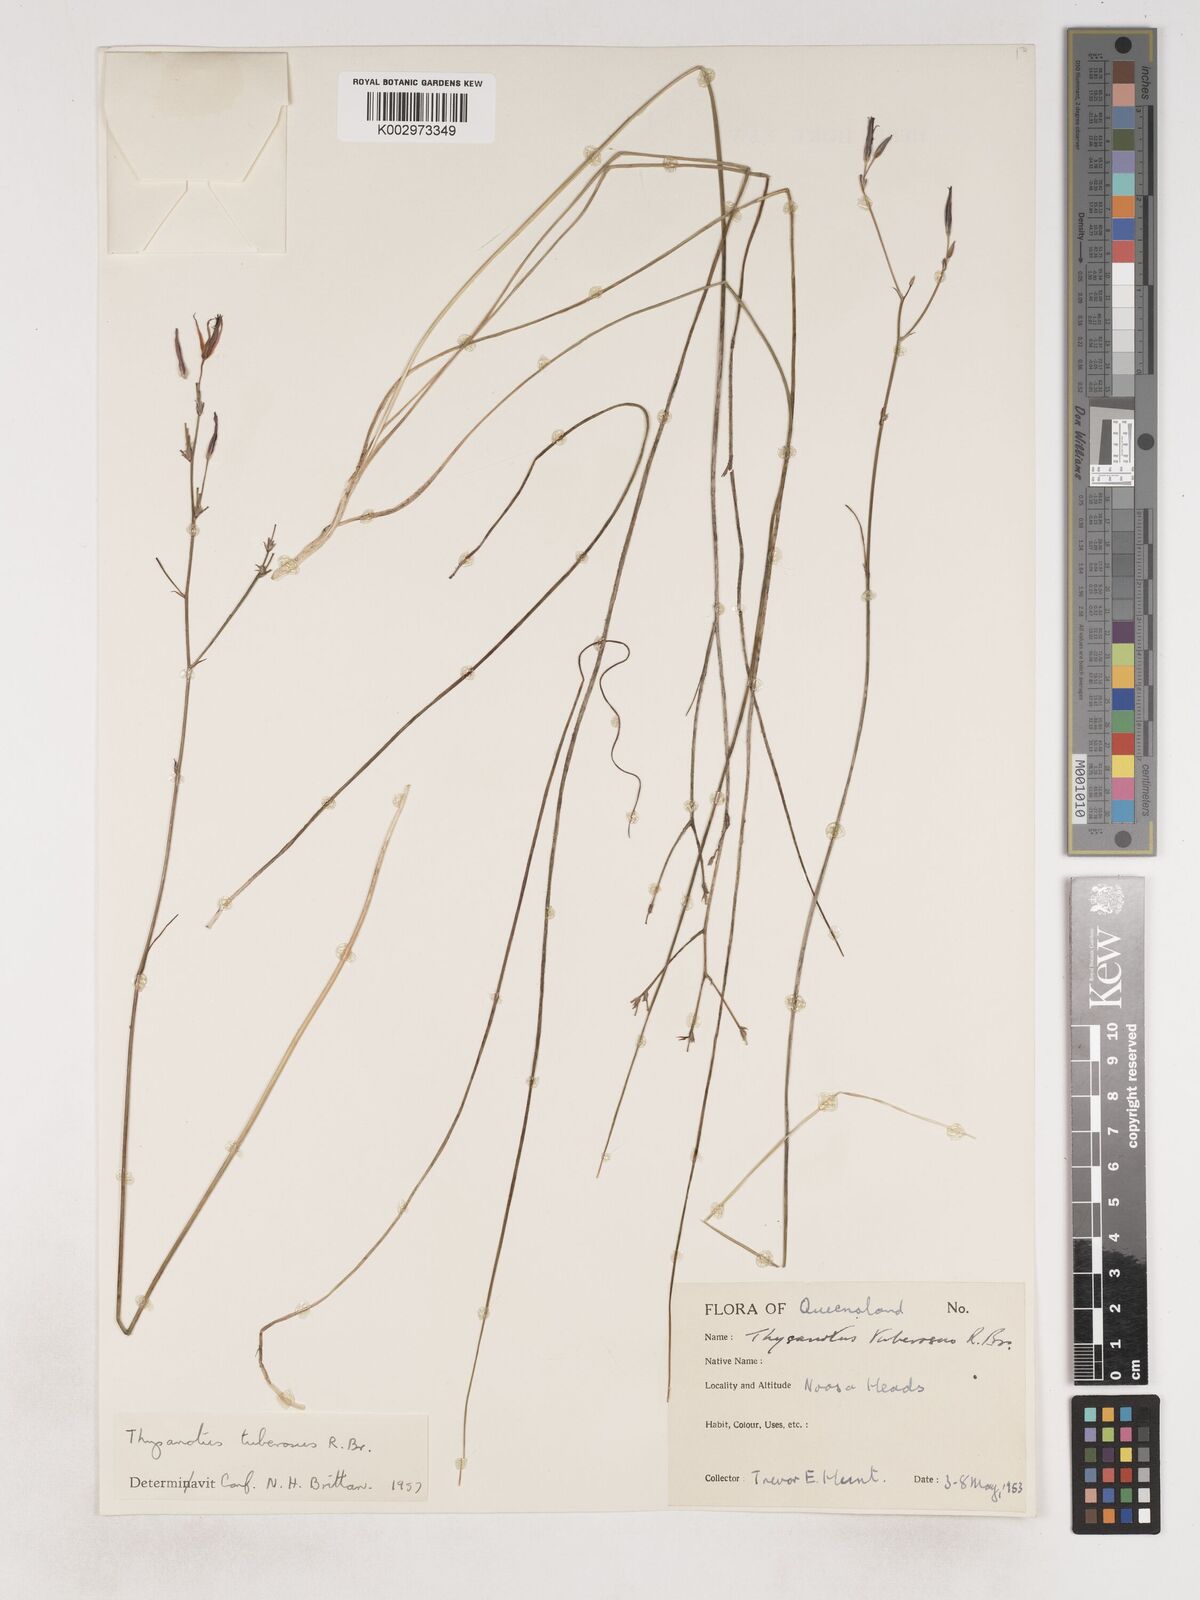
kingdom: Plantae
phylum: Tracheophyta
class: Liliopsida
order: Asparagales
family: Asparagaceae
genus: Thysanotus
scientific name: Thysanotus tuberosus
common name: Common fringed-lily
